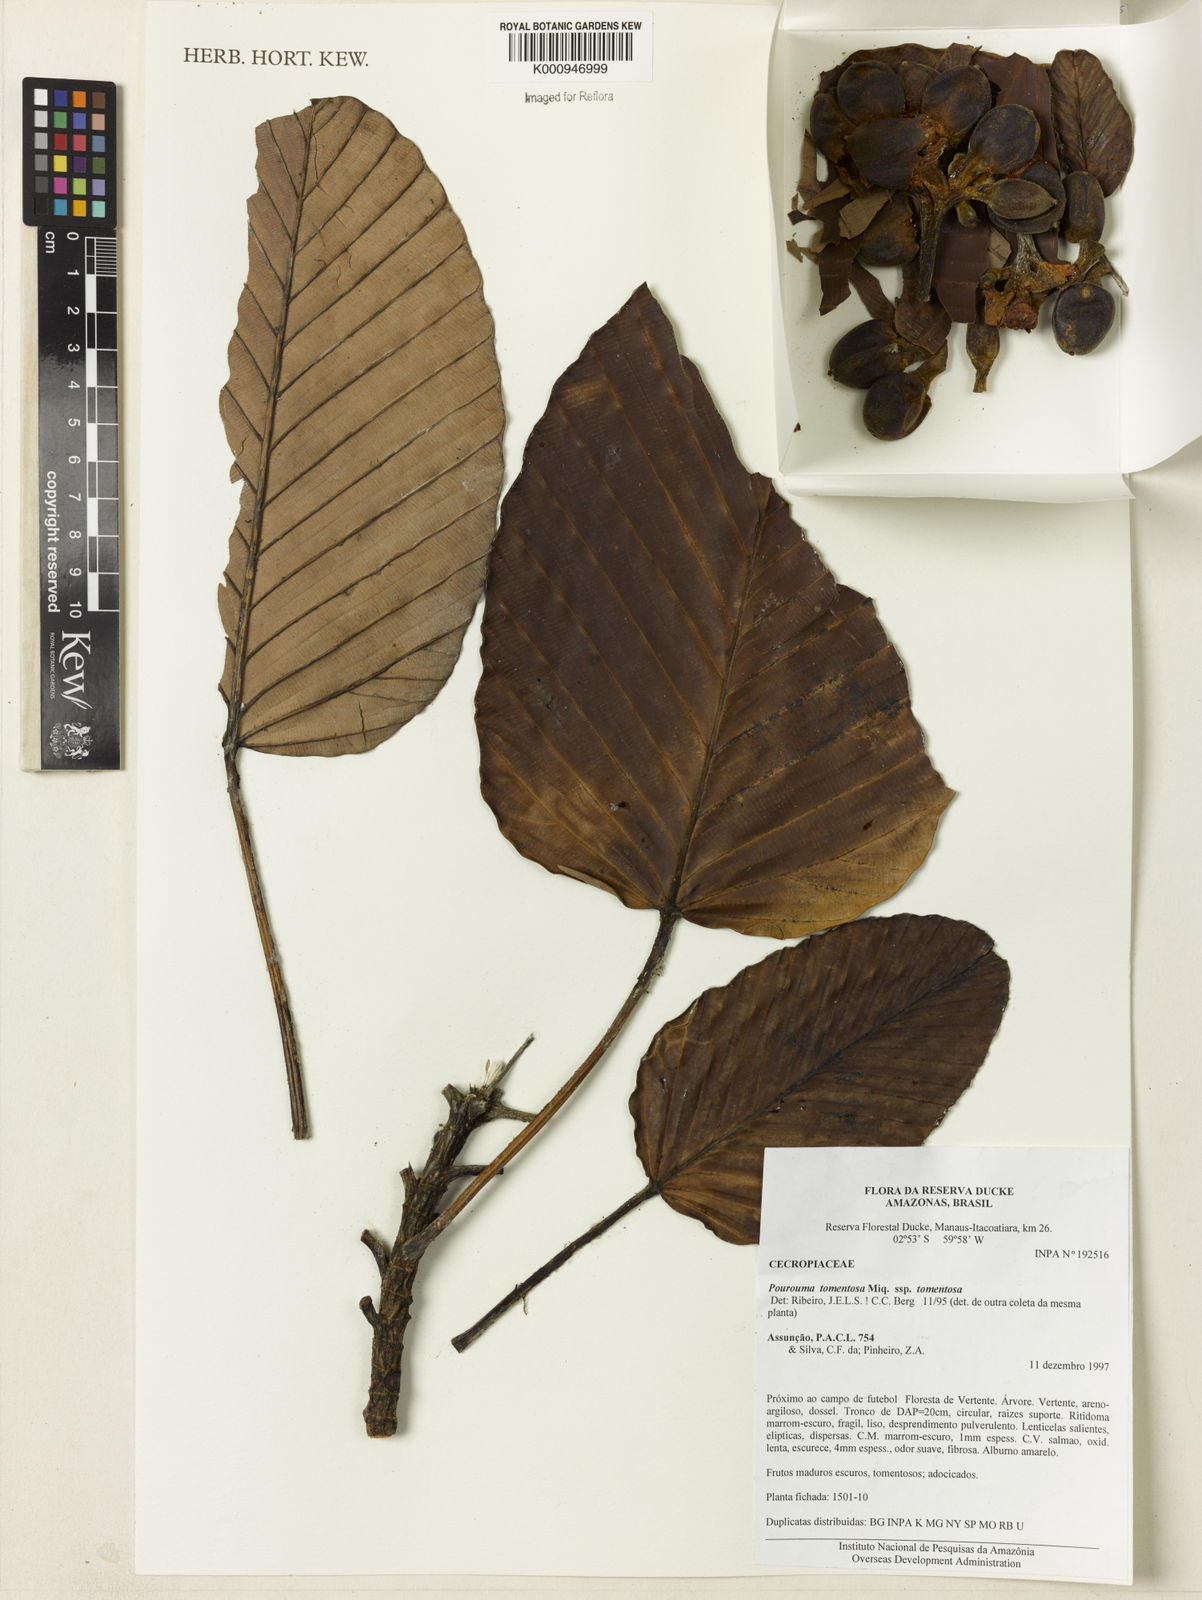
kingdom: Plantae
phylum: Tracheophyta
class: Magnoliopsida
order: Rosales
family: Urticaceae
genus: Pourouma
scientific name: Pourouma tomentosa
